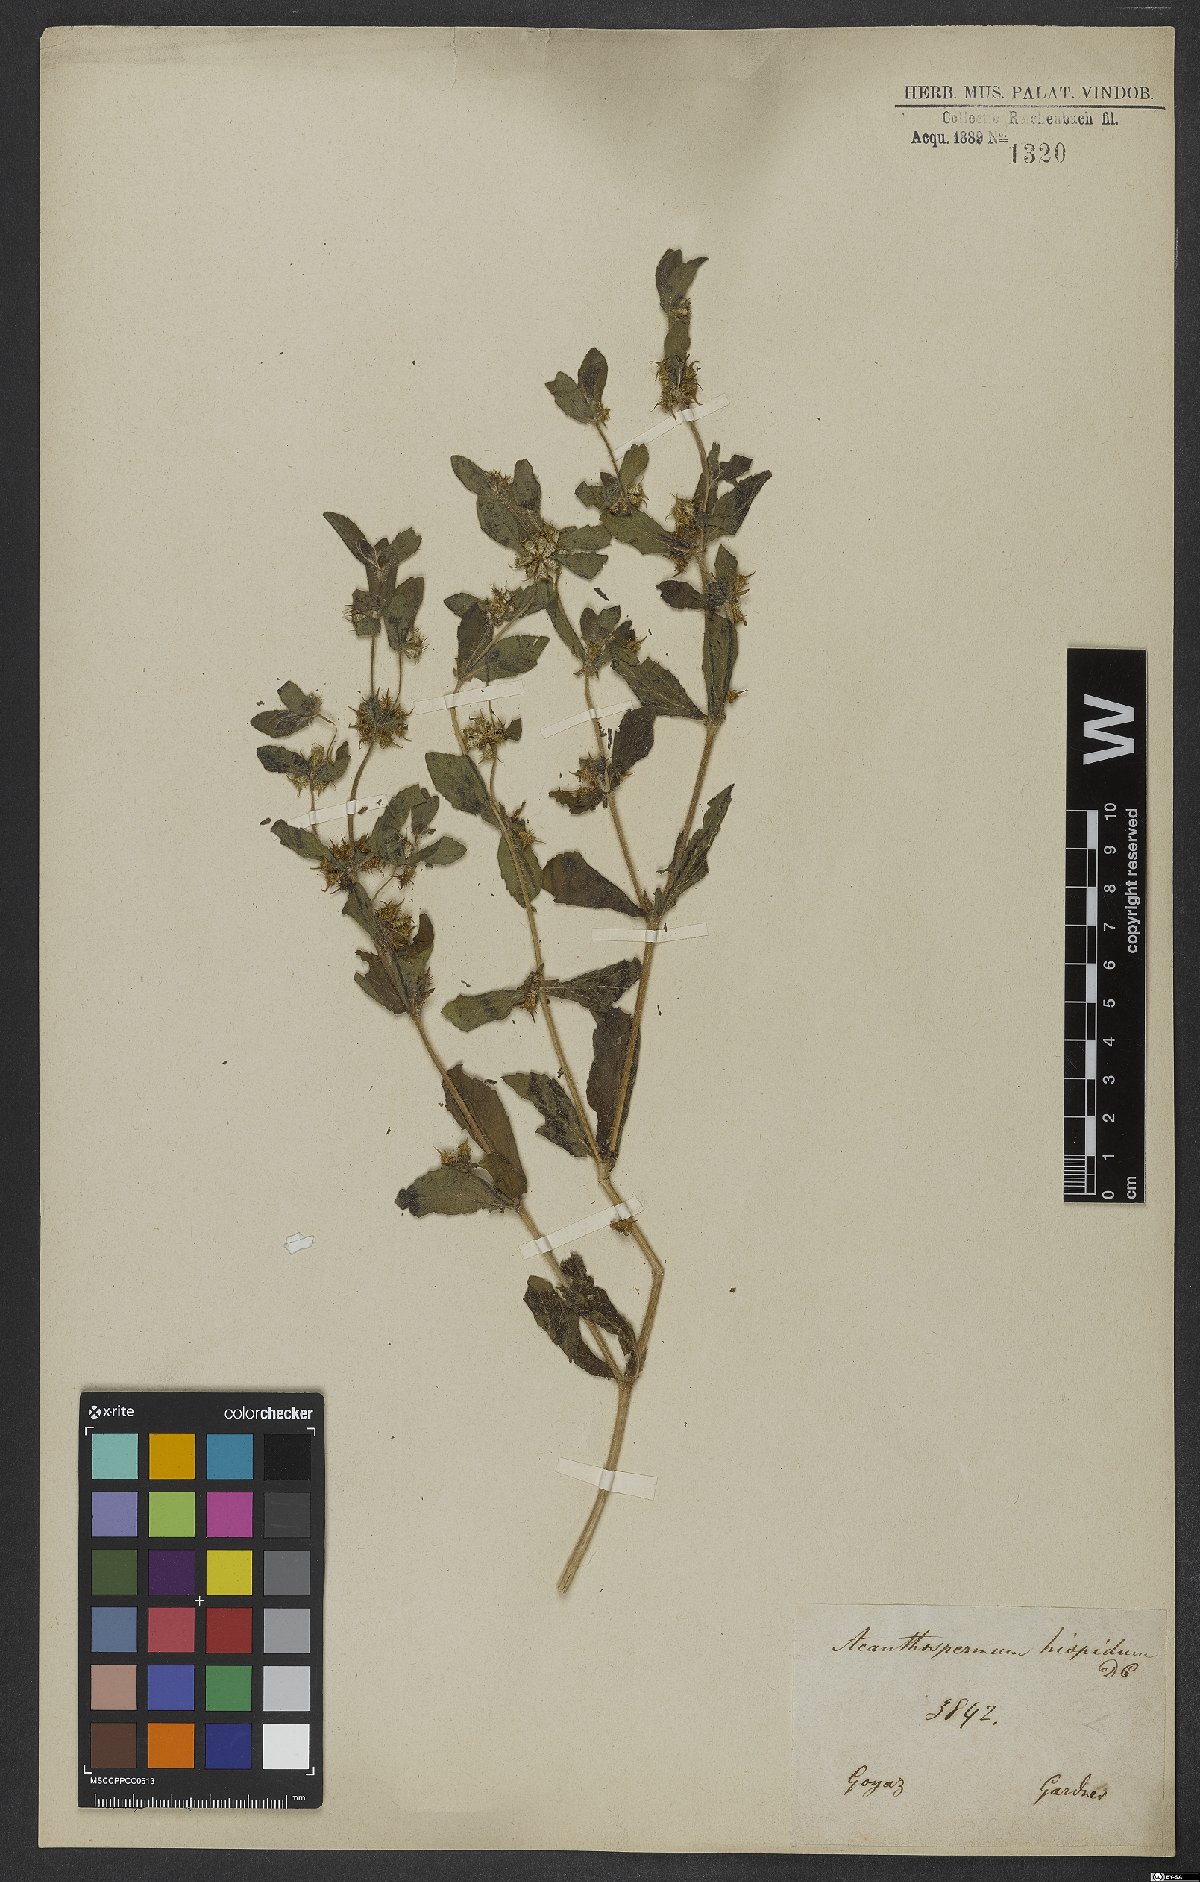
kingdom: Plantae
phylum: Tracheophyta
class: Magnoliopsida
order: Asterales
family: Asteraceae
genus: Acanthospermum
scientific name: Acanthospermum hispidum
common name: Hispid starbur
